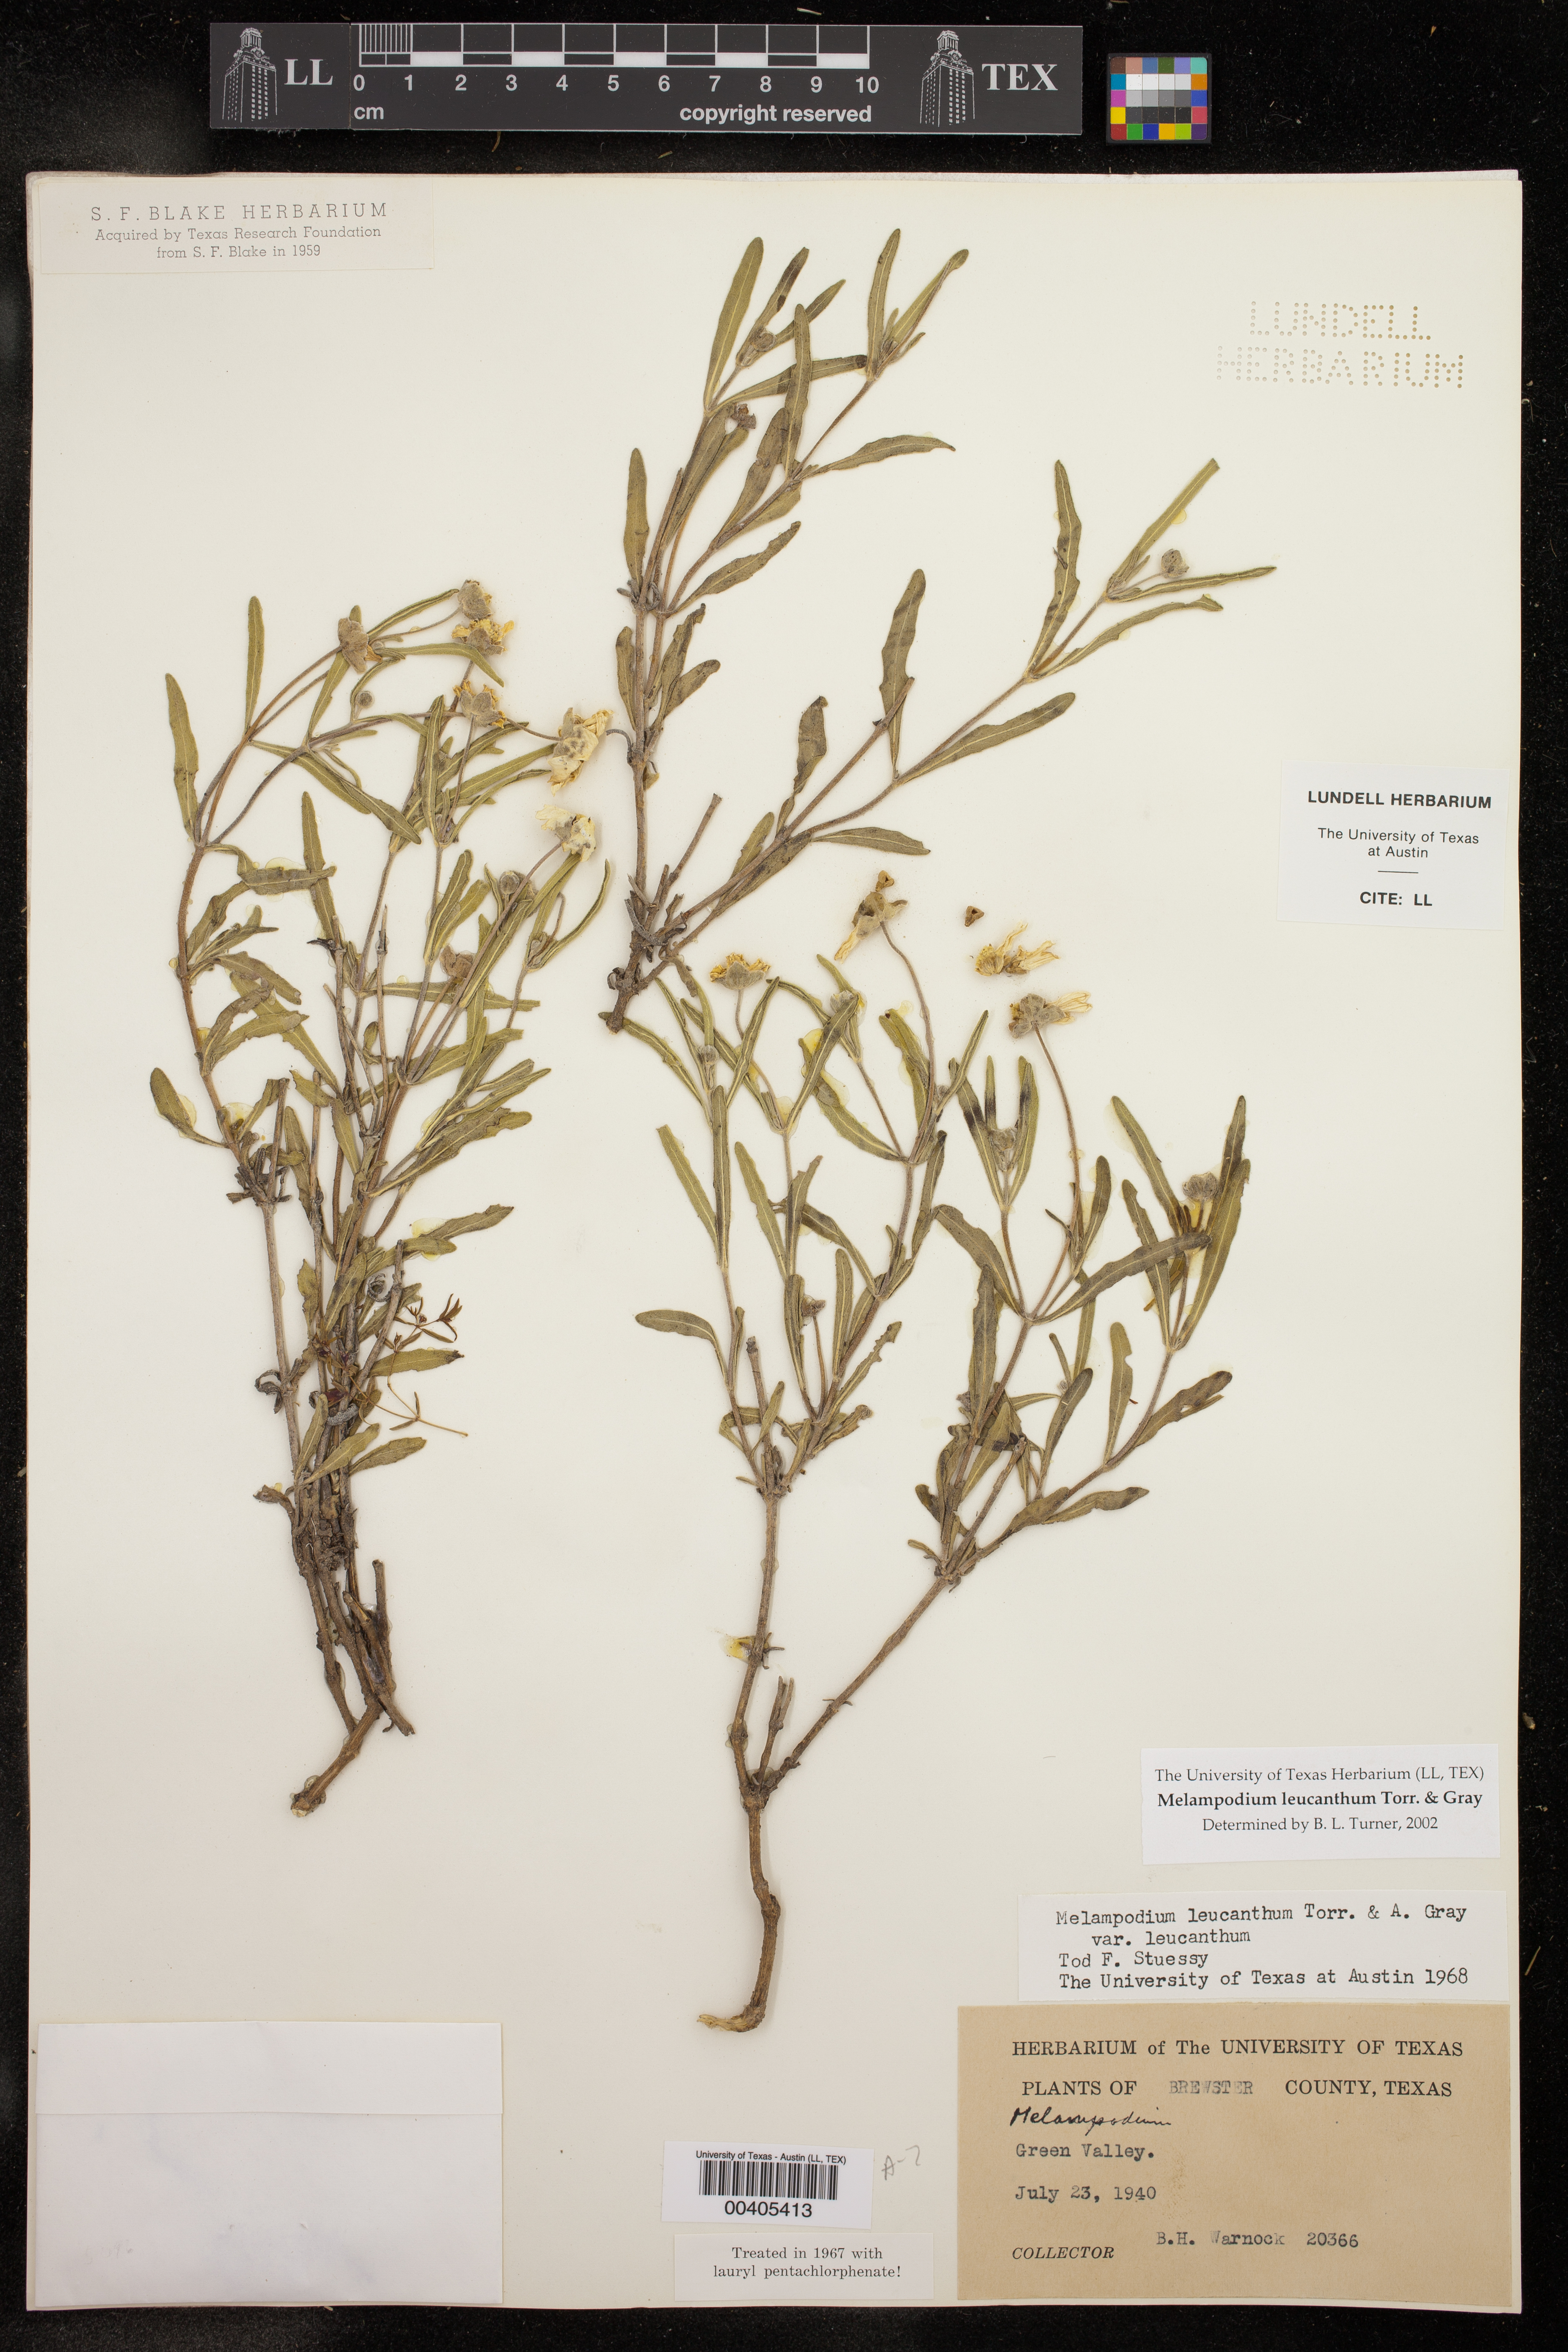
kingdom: Plantae
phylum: Tracheophyta
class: Magnoliopsida
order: Asterales
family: Asteraceae
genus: Melampodium
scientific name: Melampodium leucanthum
